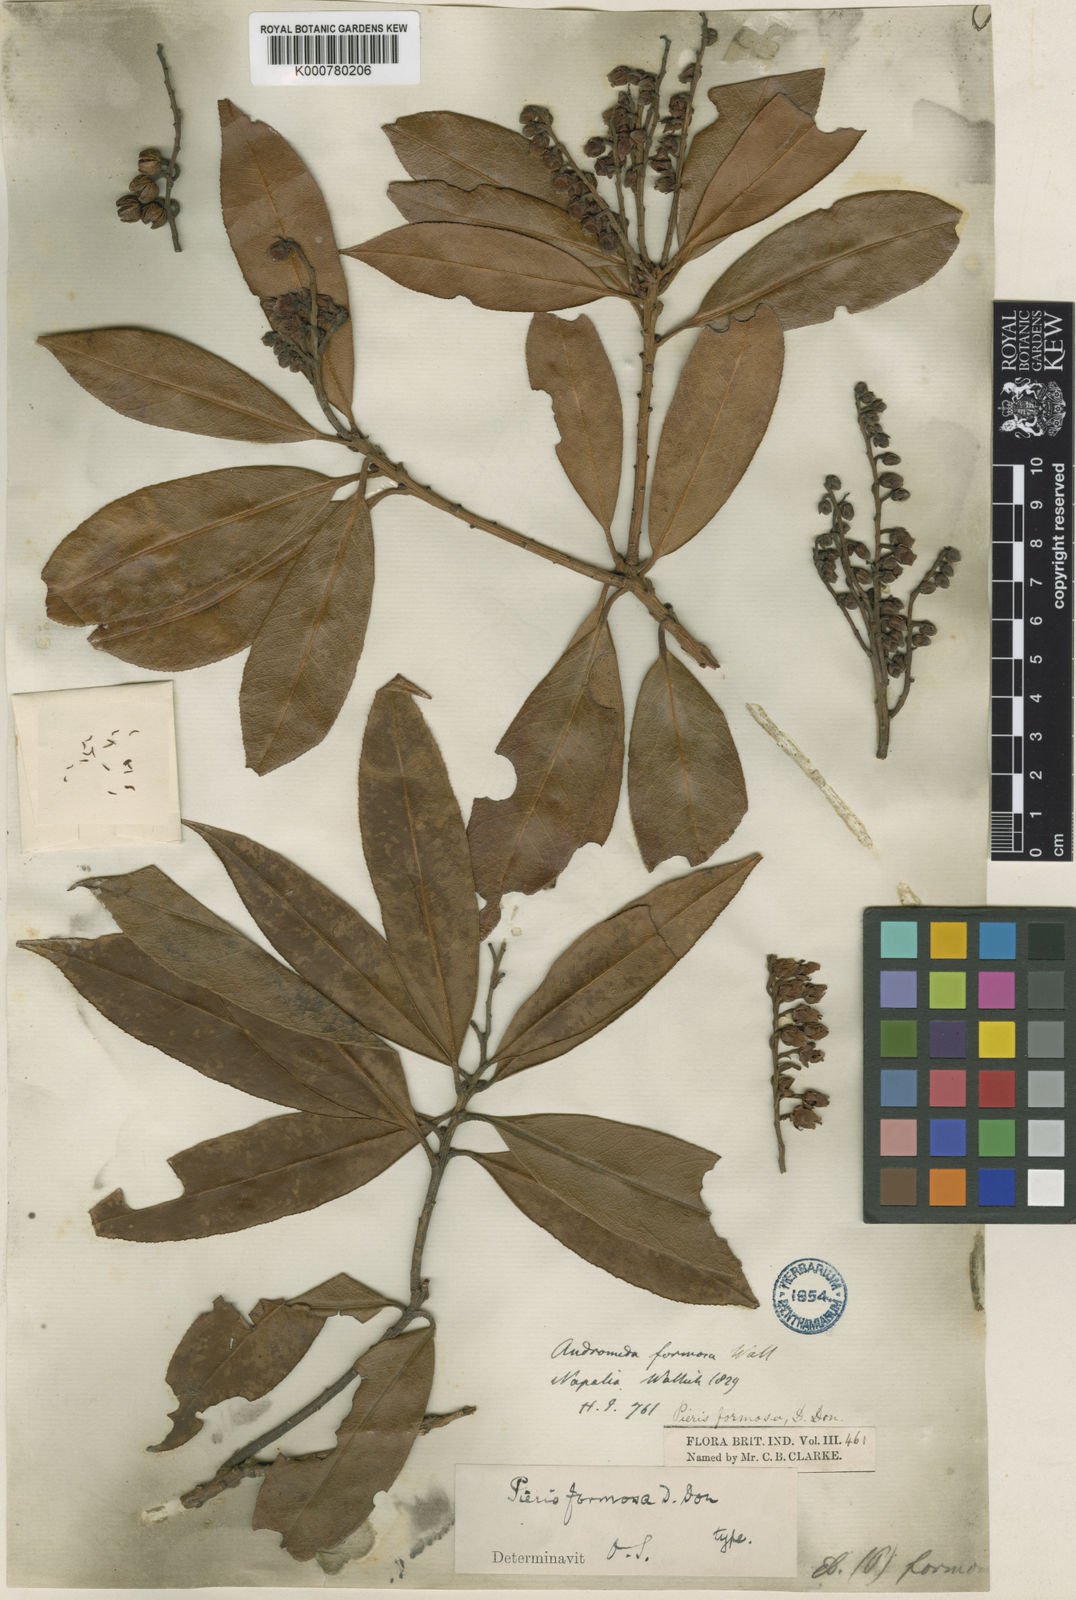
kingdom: Plantae
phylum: Tracheophyta
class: Magnoliopsida
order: Ericales
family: Ericaceae
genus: Pieris
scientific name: Pieris formosa
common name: Formosan pieris
